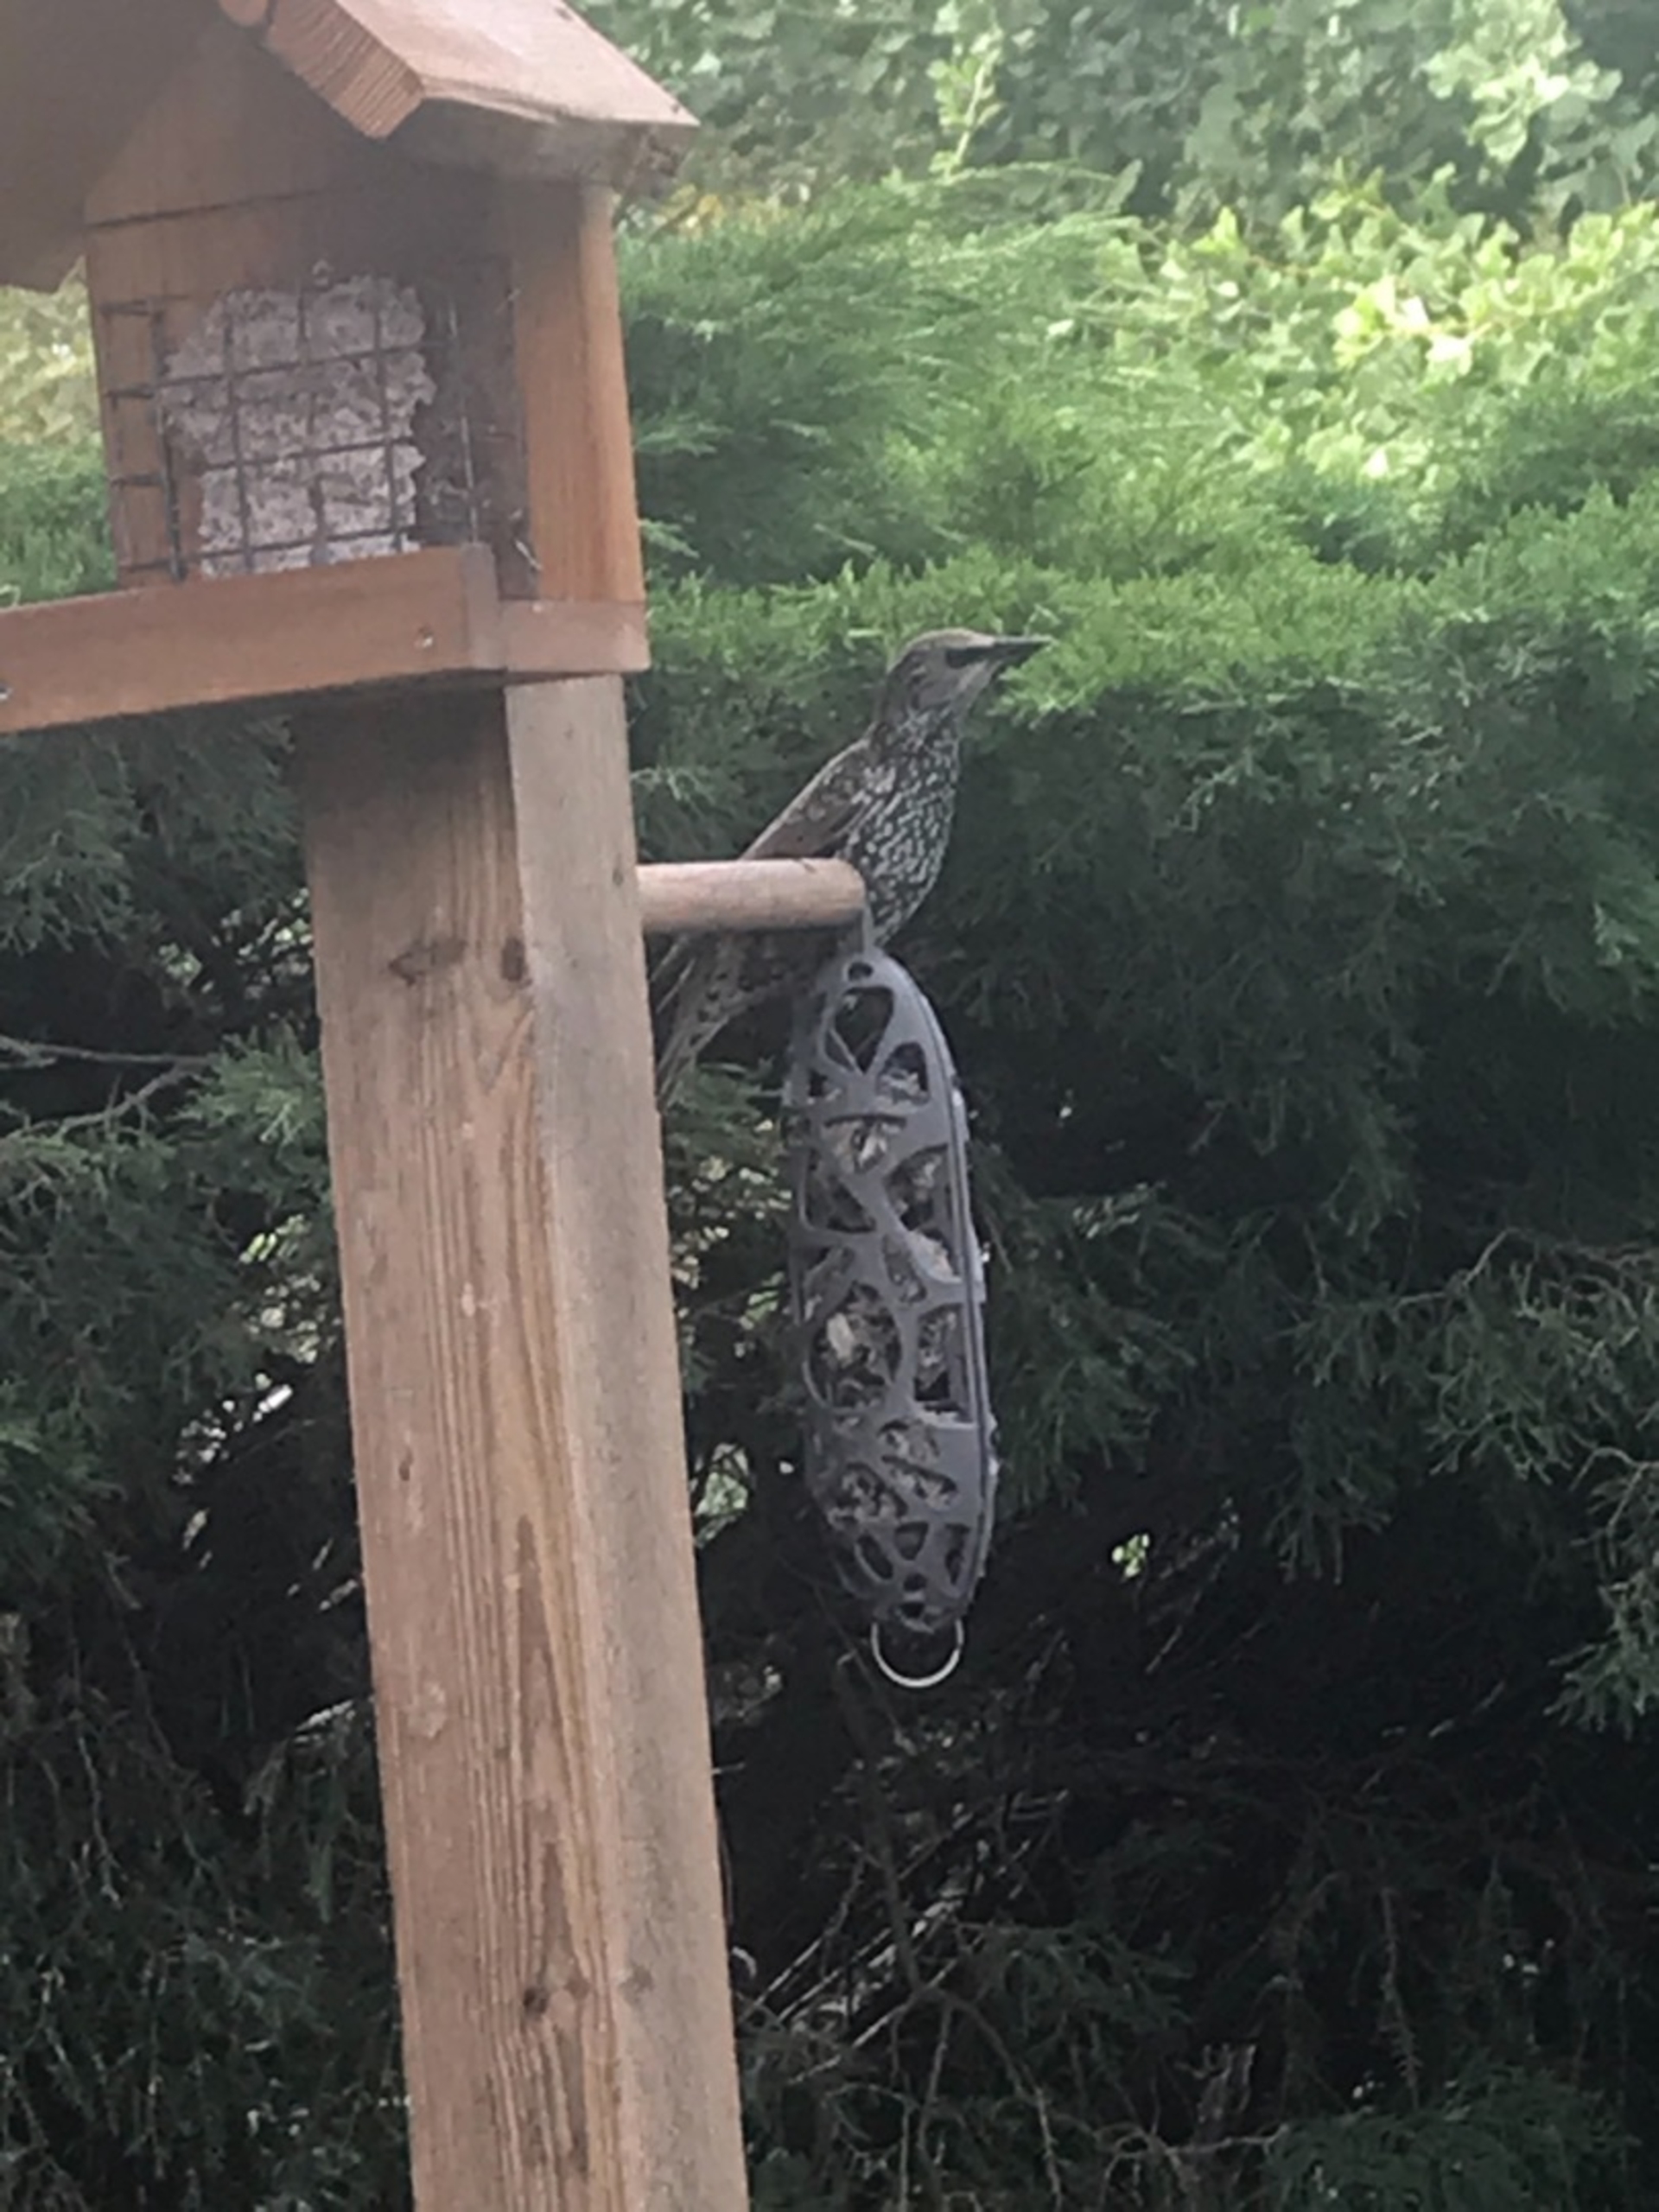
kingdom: Animalia
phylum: Chordata
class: Aves
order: Passeriformes
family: Sturnidae
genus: Sturnus
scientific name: Sturnus vulgaris
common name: Stær
